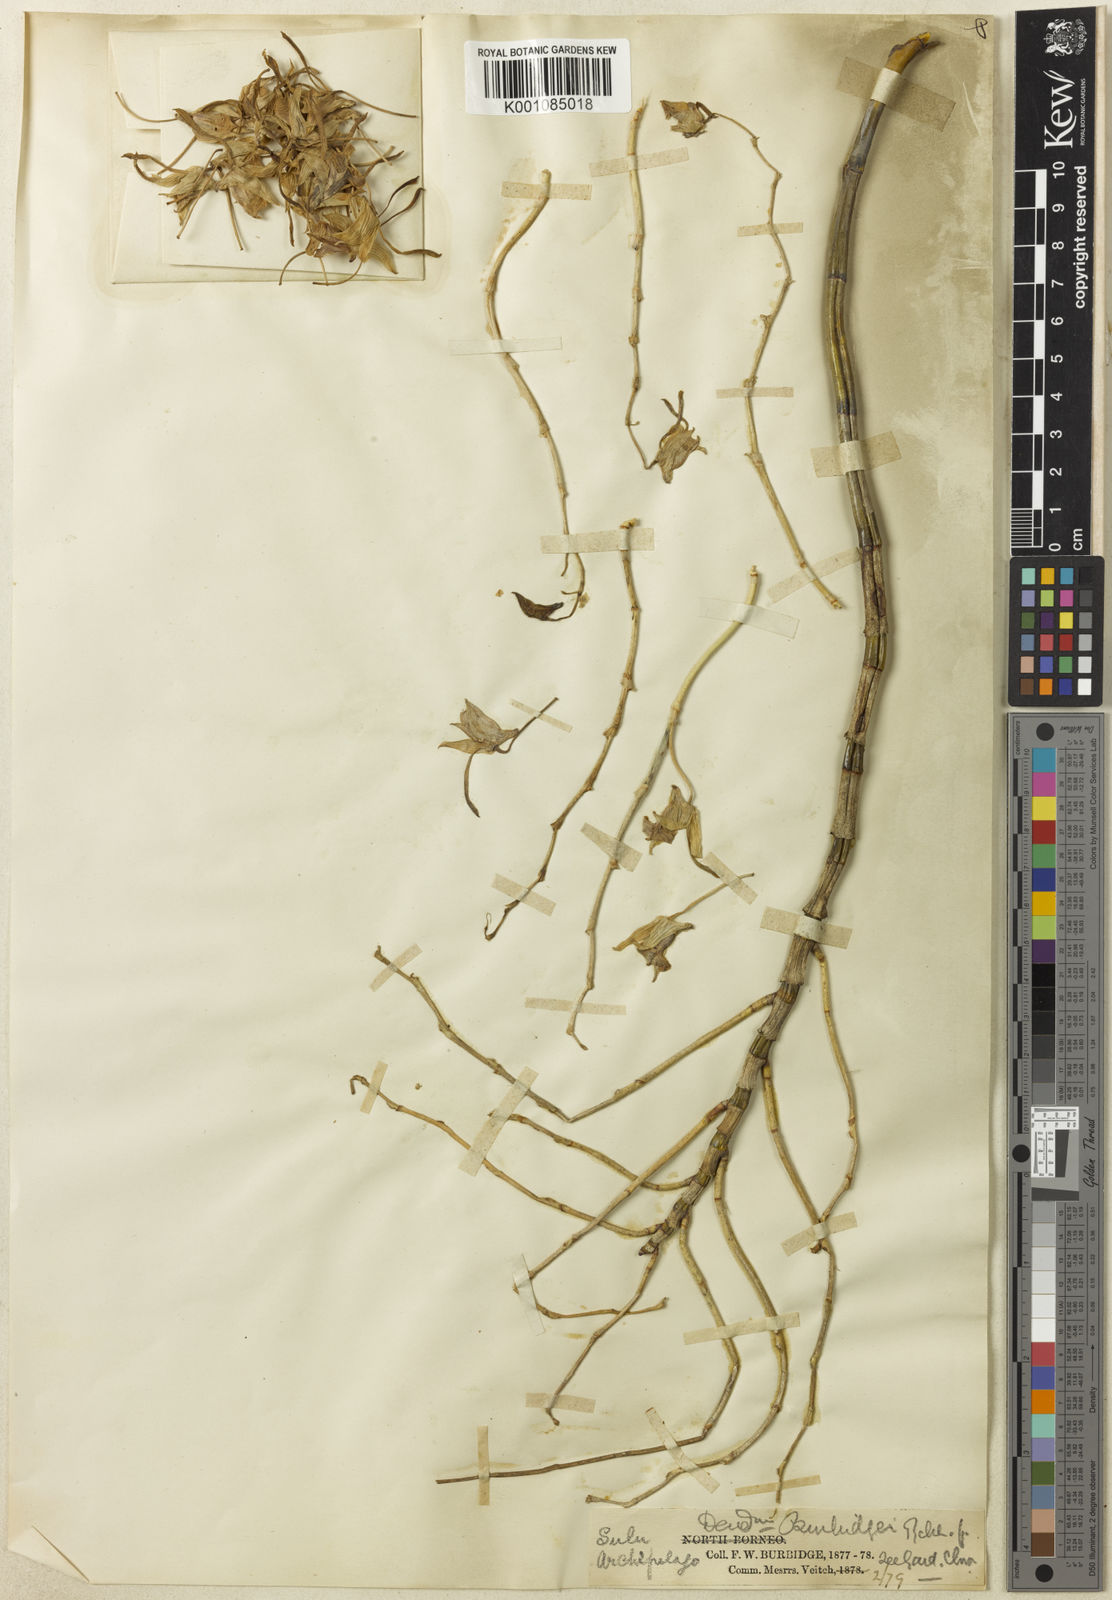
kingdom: Plantae
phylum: Tracheophyta
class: Liliopsida
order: Asparagales
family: Orchidaceae
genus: Dendrobium
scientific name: Dendrobium bicaudatum
